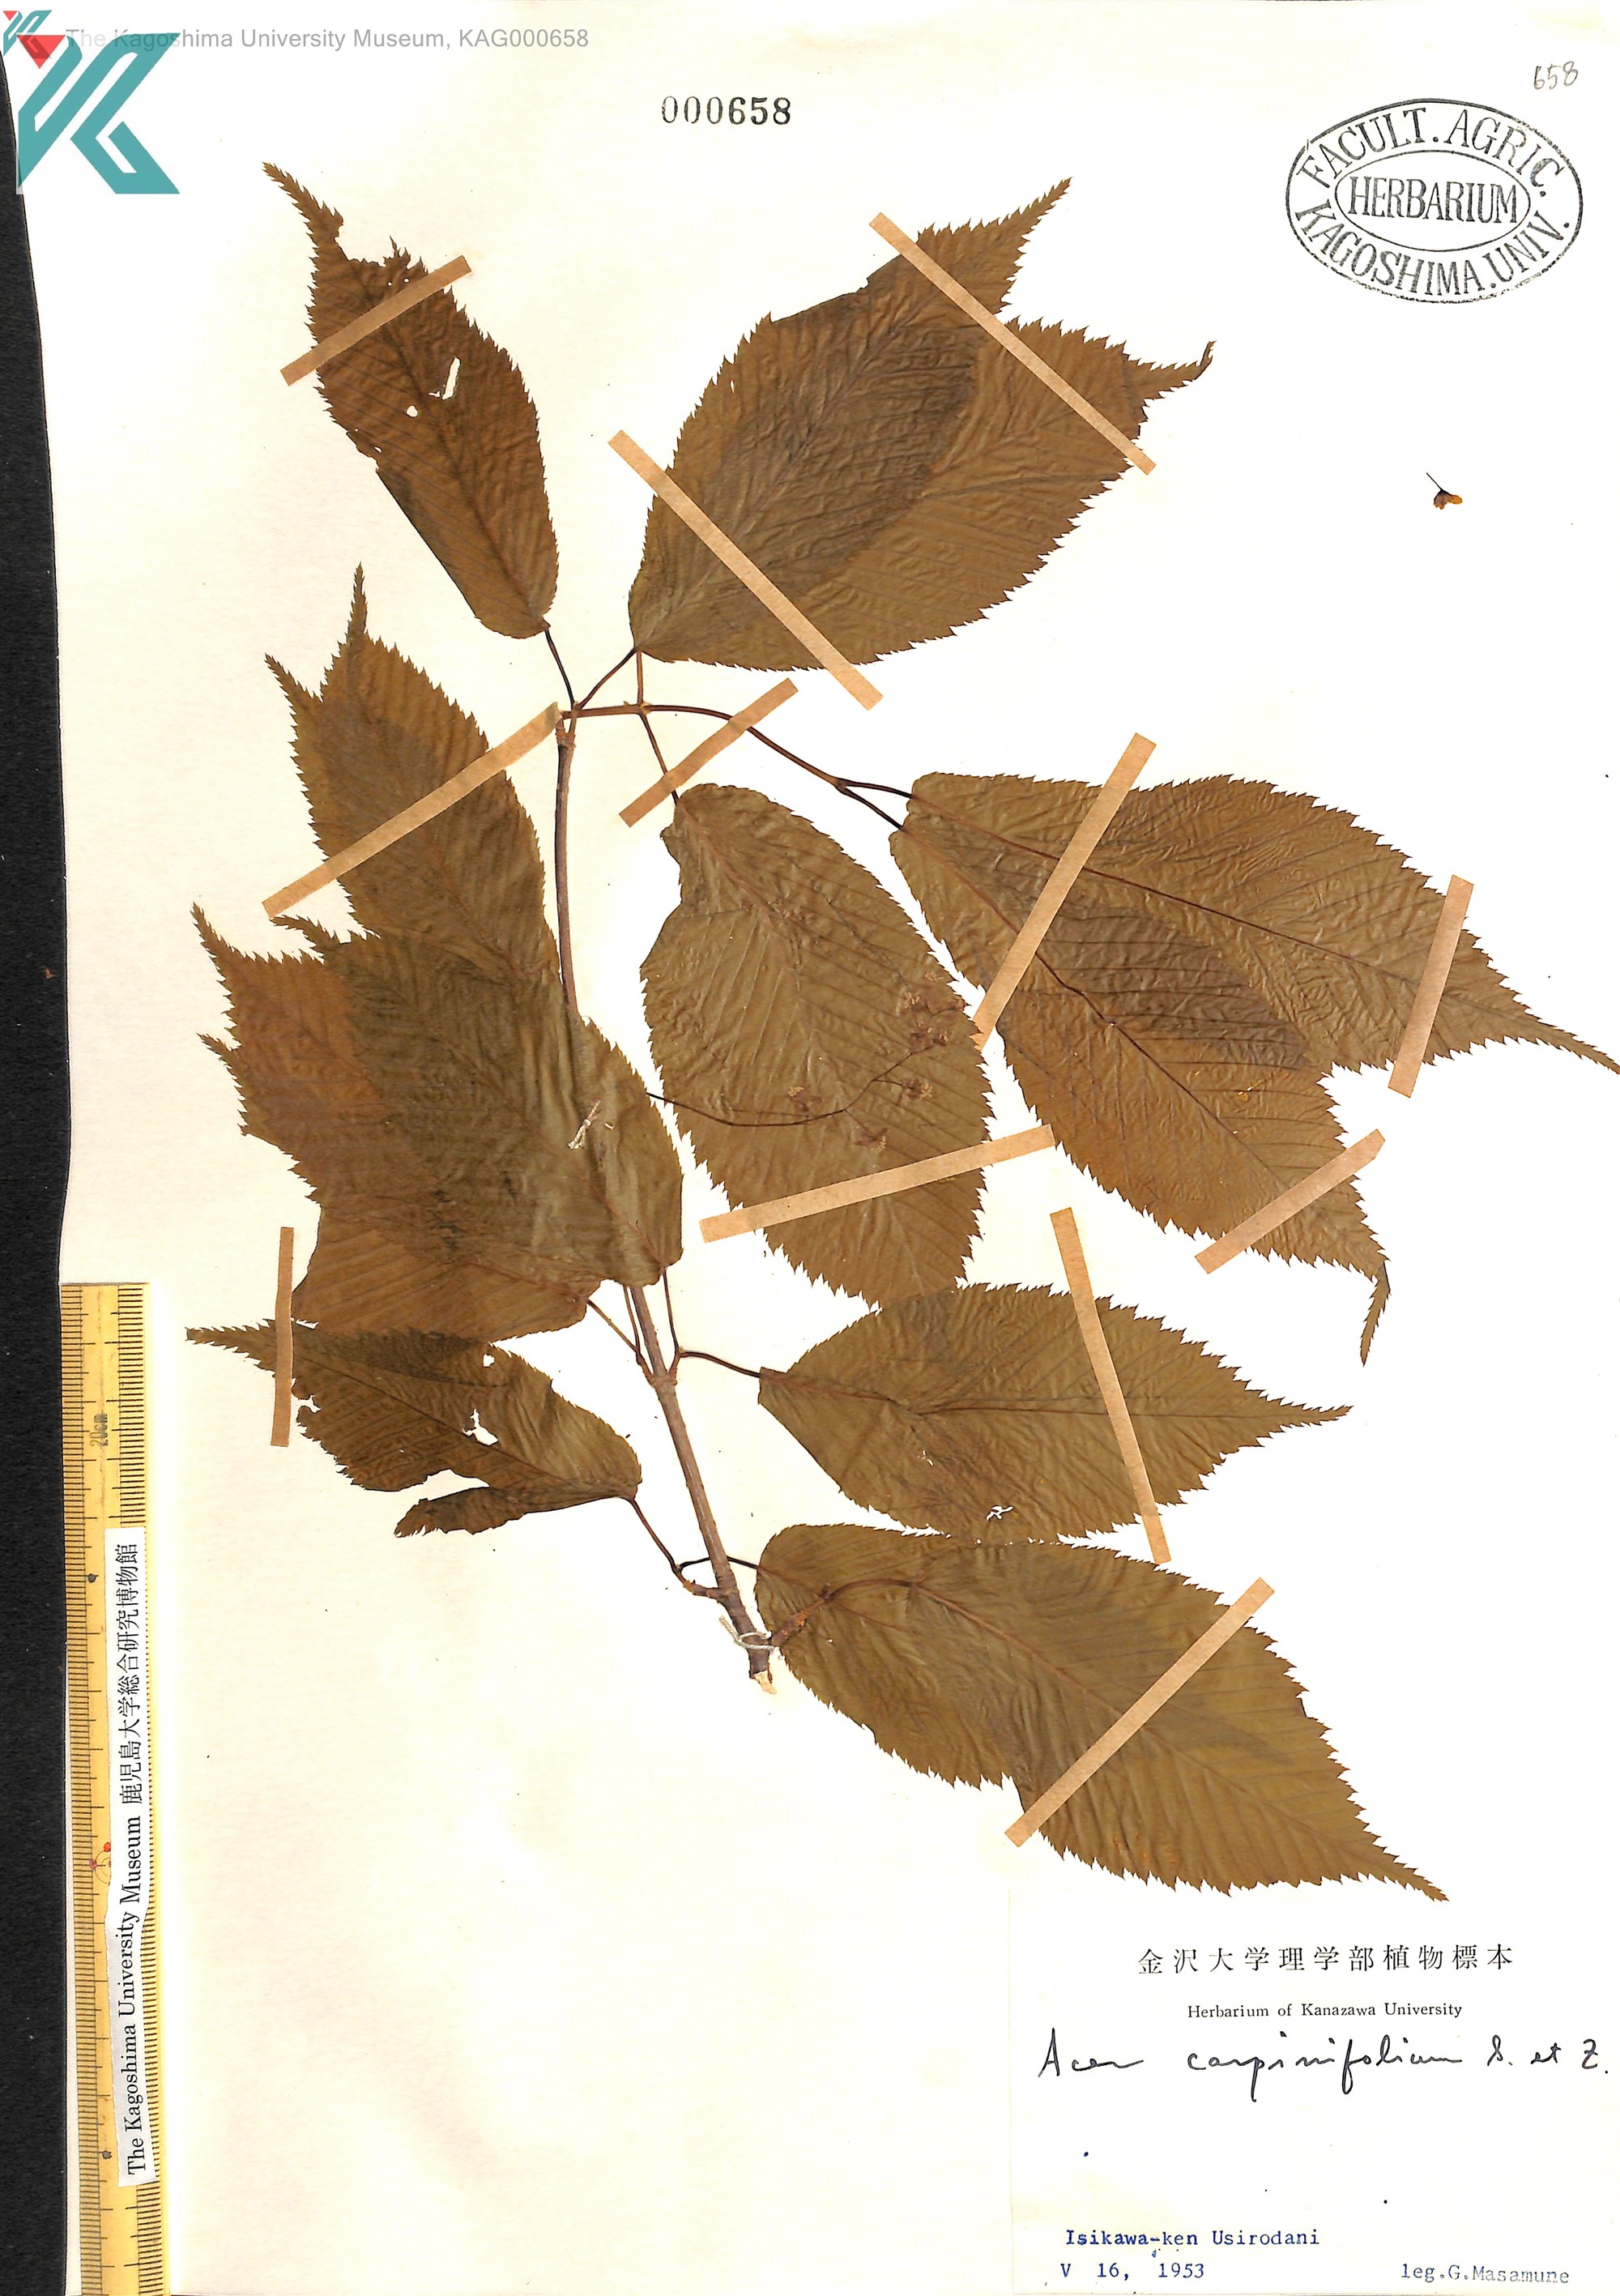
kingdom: Plantae
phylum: Tracheophyta
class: Magnoliopsida
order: Sapindales
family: Sapindaceae
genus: Acer
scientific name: Acer carpinifolium
